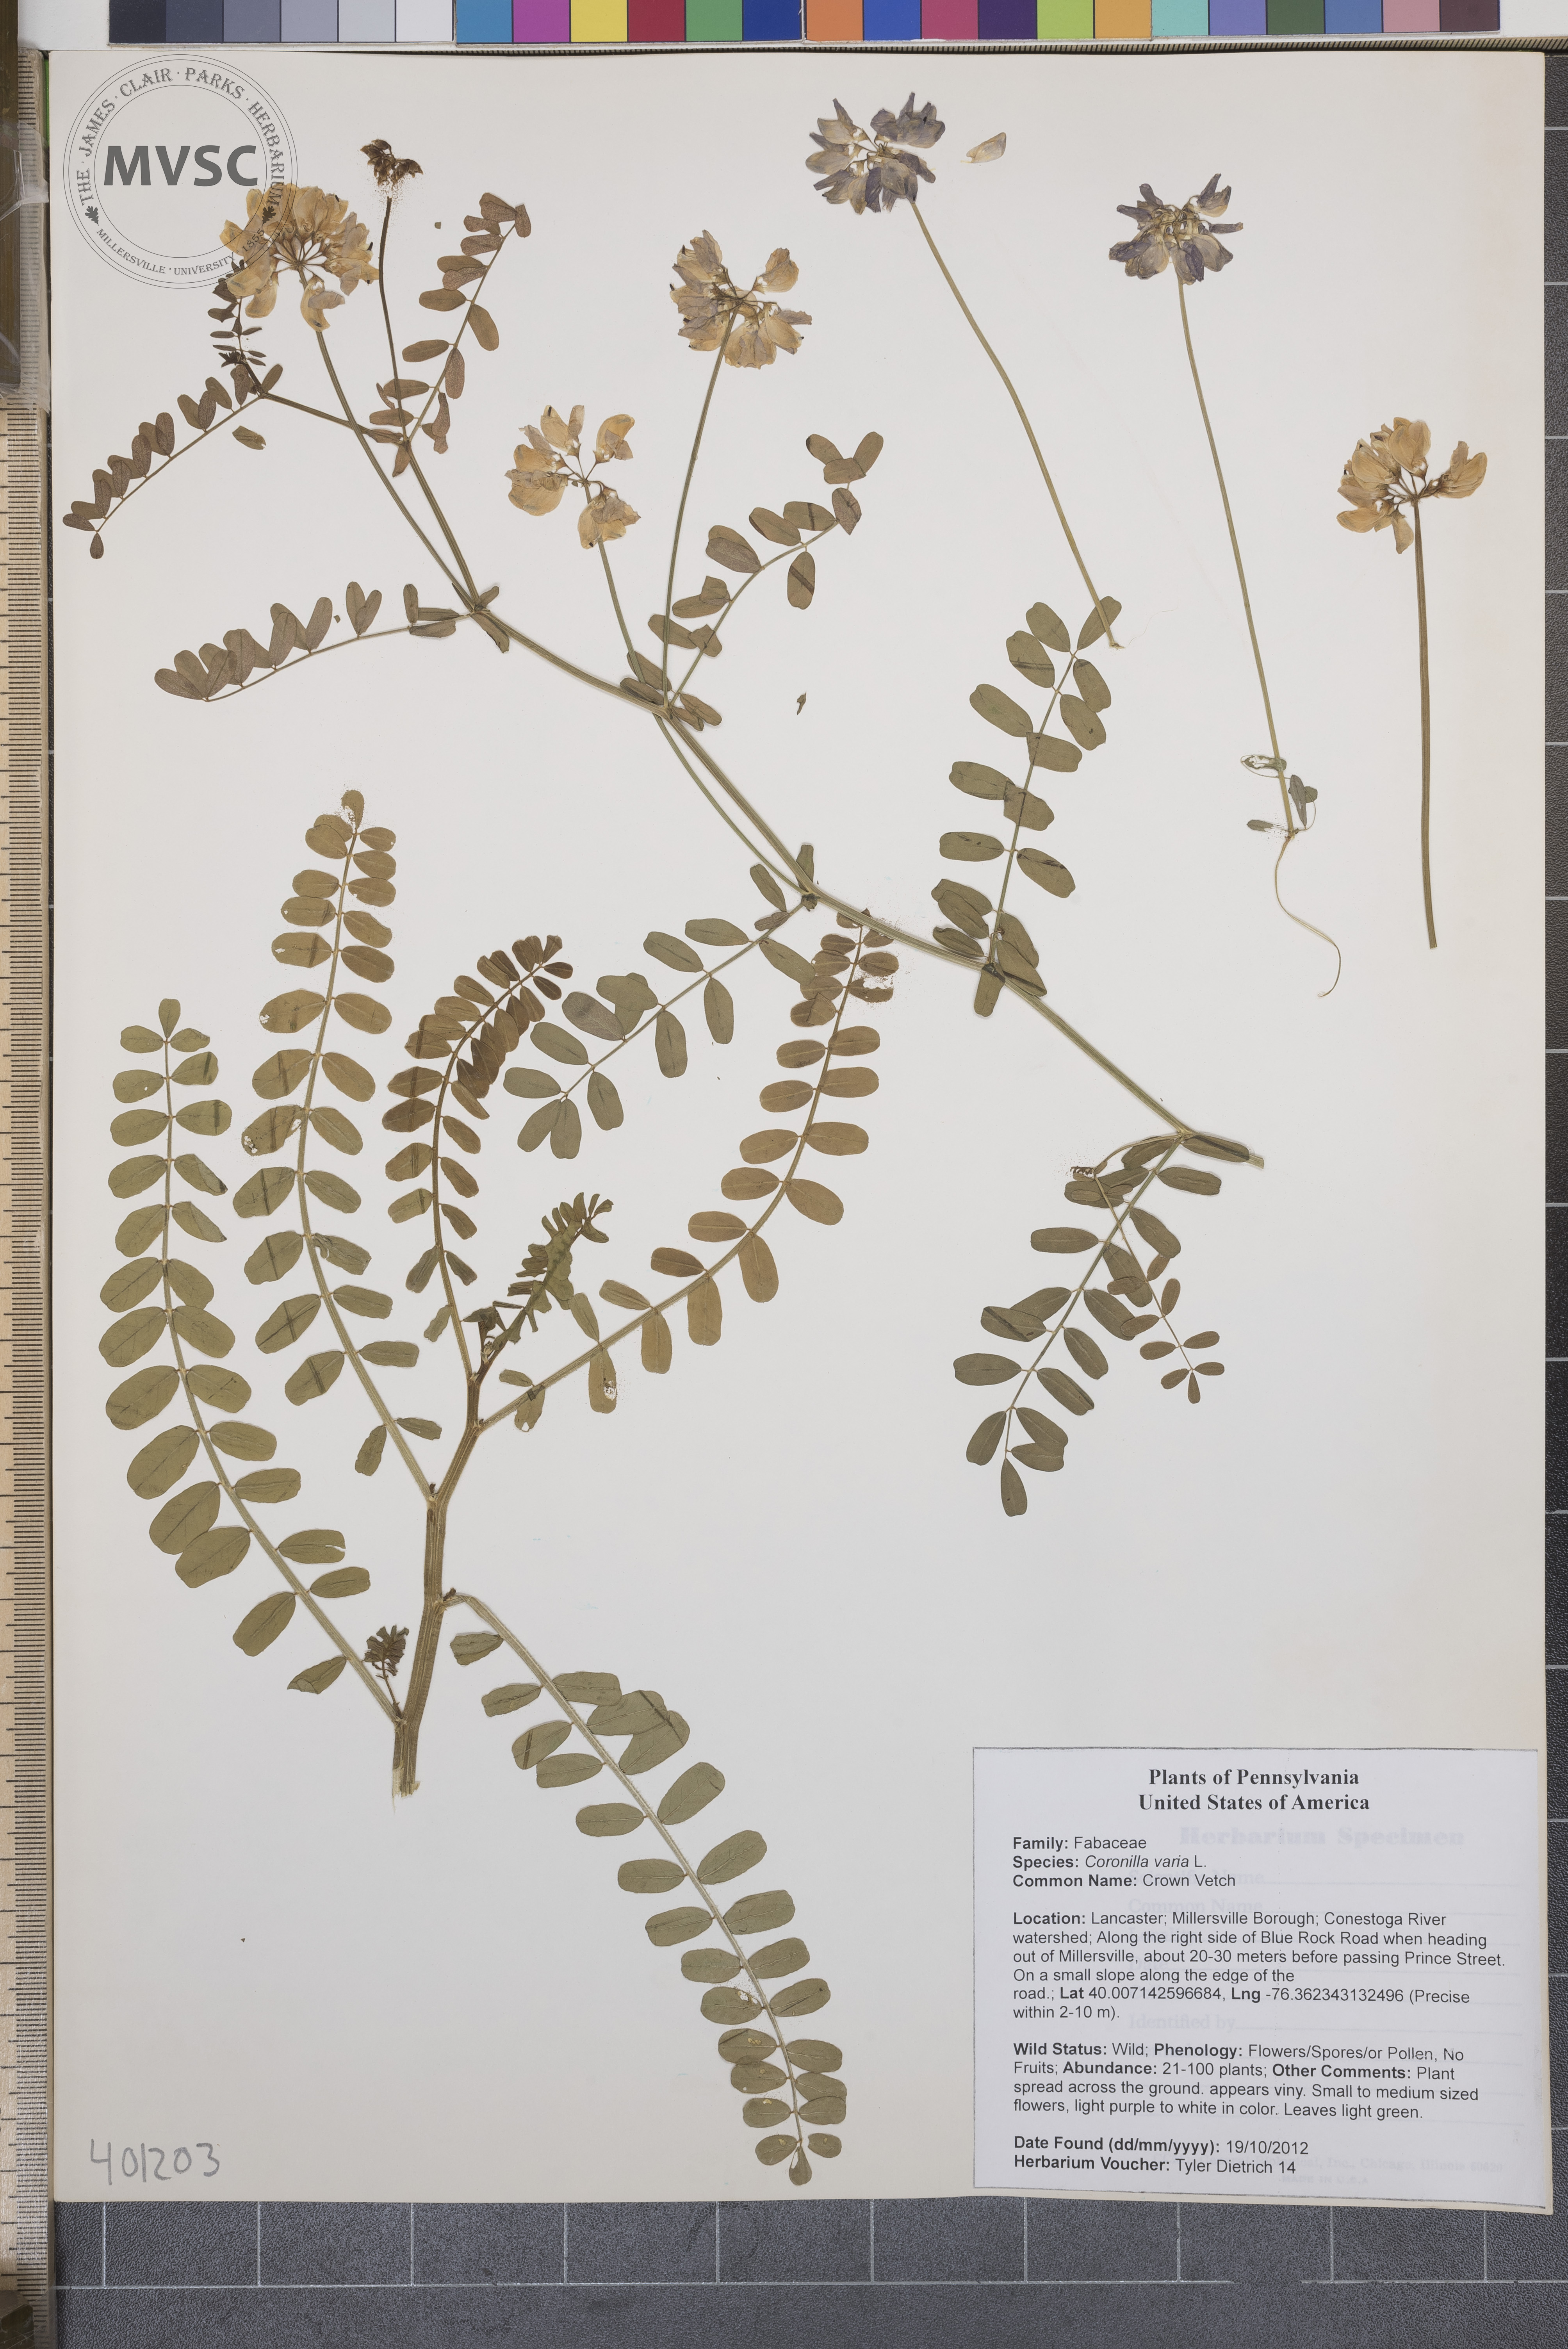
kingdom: Plantae
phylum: Tracheophyta
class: Magnoliopsida
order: Fabales
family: Fabaceae
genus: Coronilla
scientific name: Coronilla varia
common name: Crown Vetch
